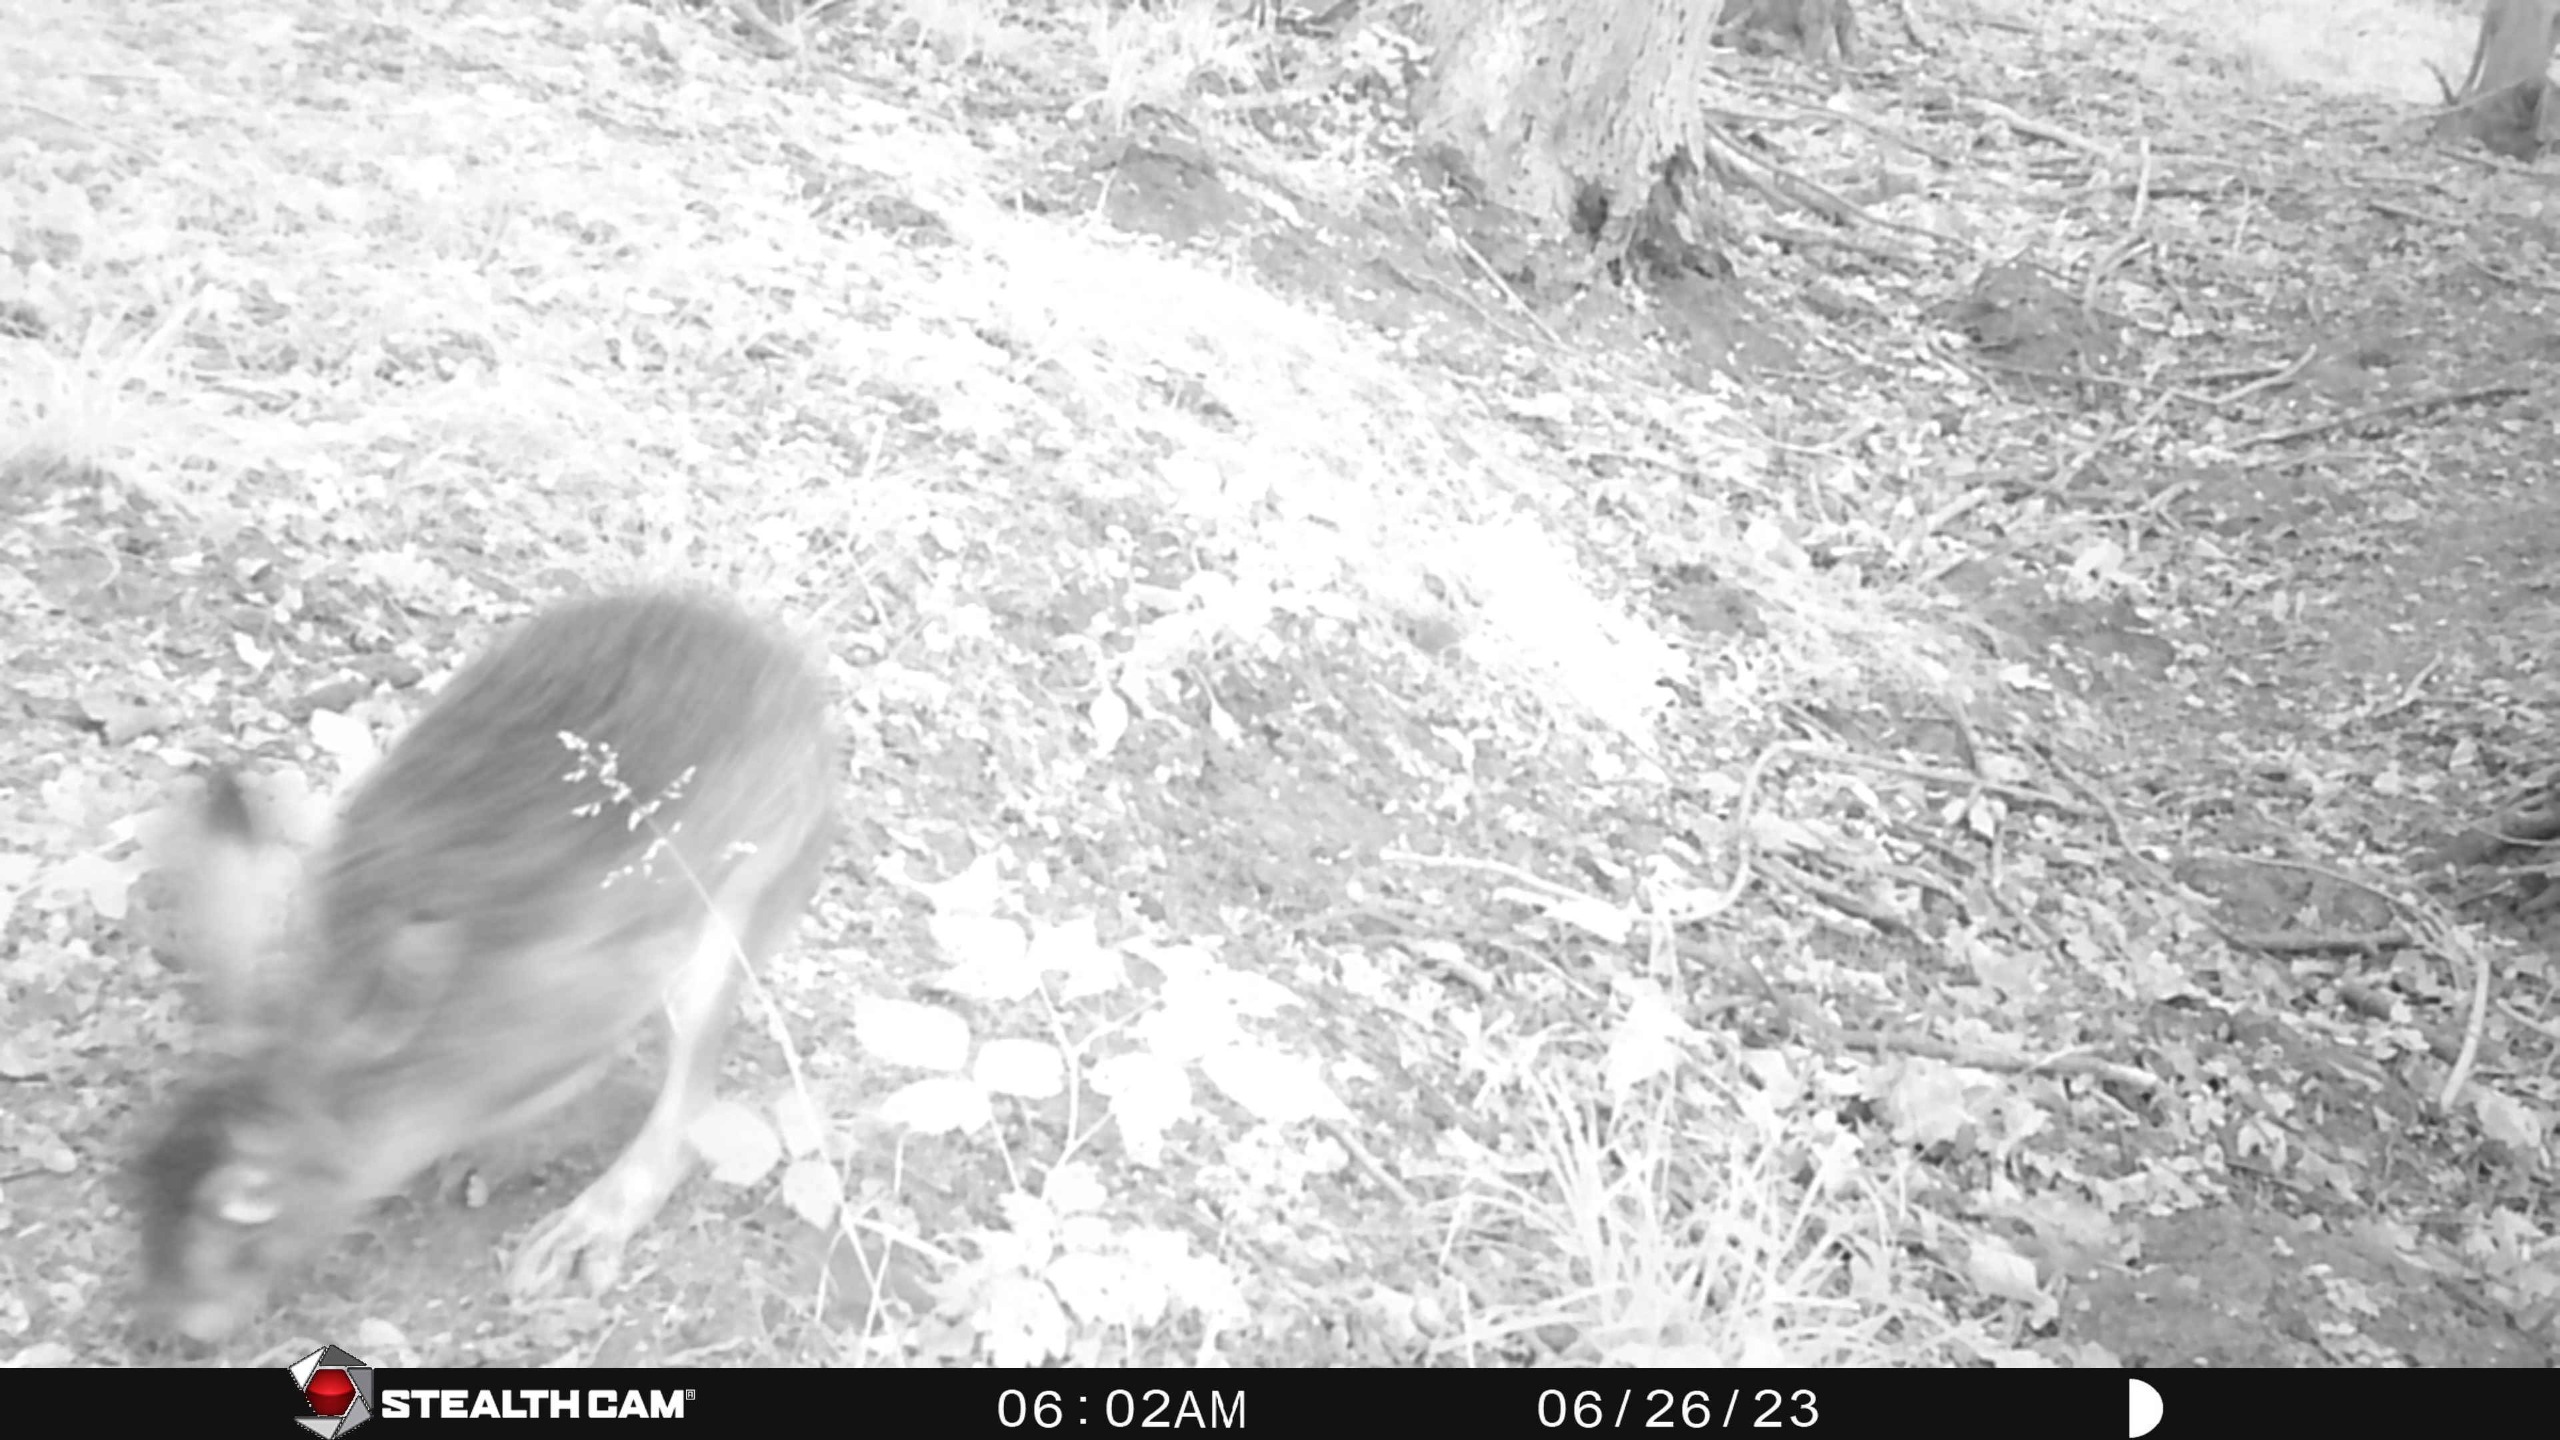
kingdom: Animalia
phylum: Chordata
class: Mammalia
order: Lagomorpha
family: Leporidae
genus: Lepus
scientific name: Lepus europaeus
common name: Hare
